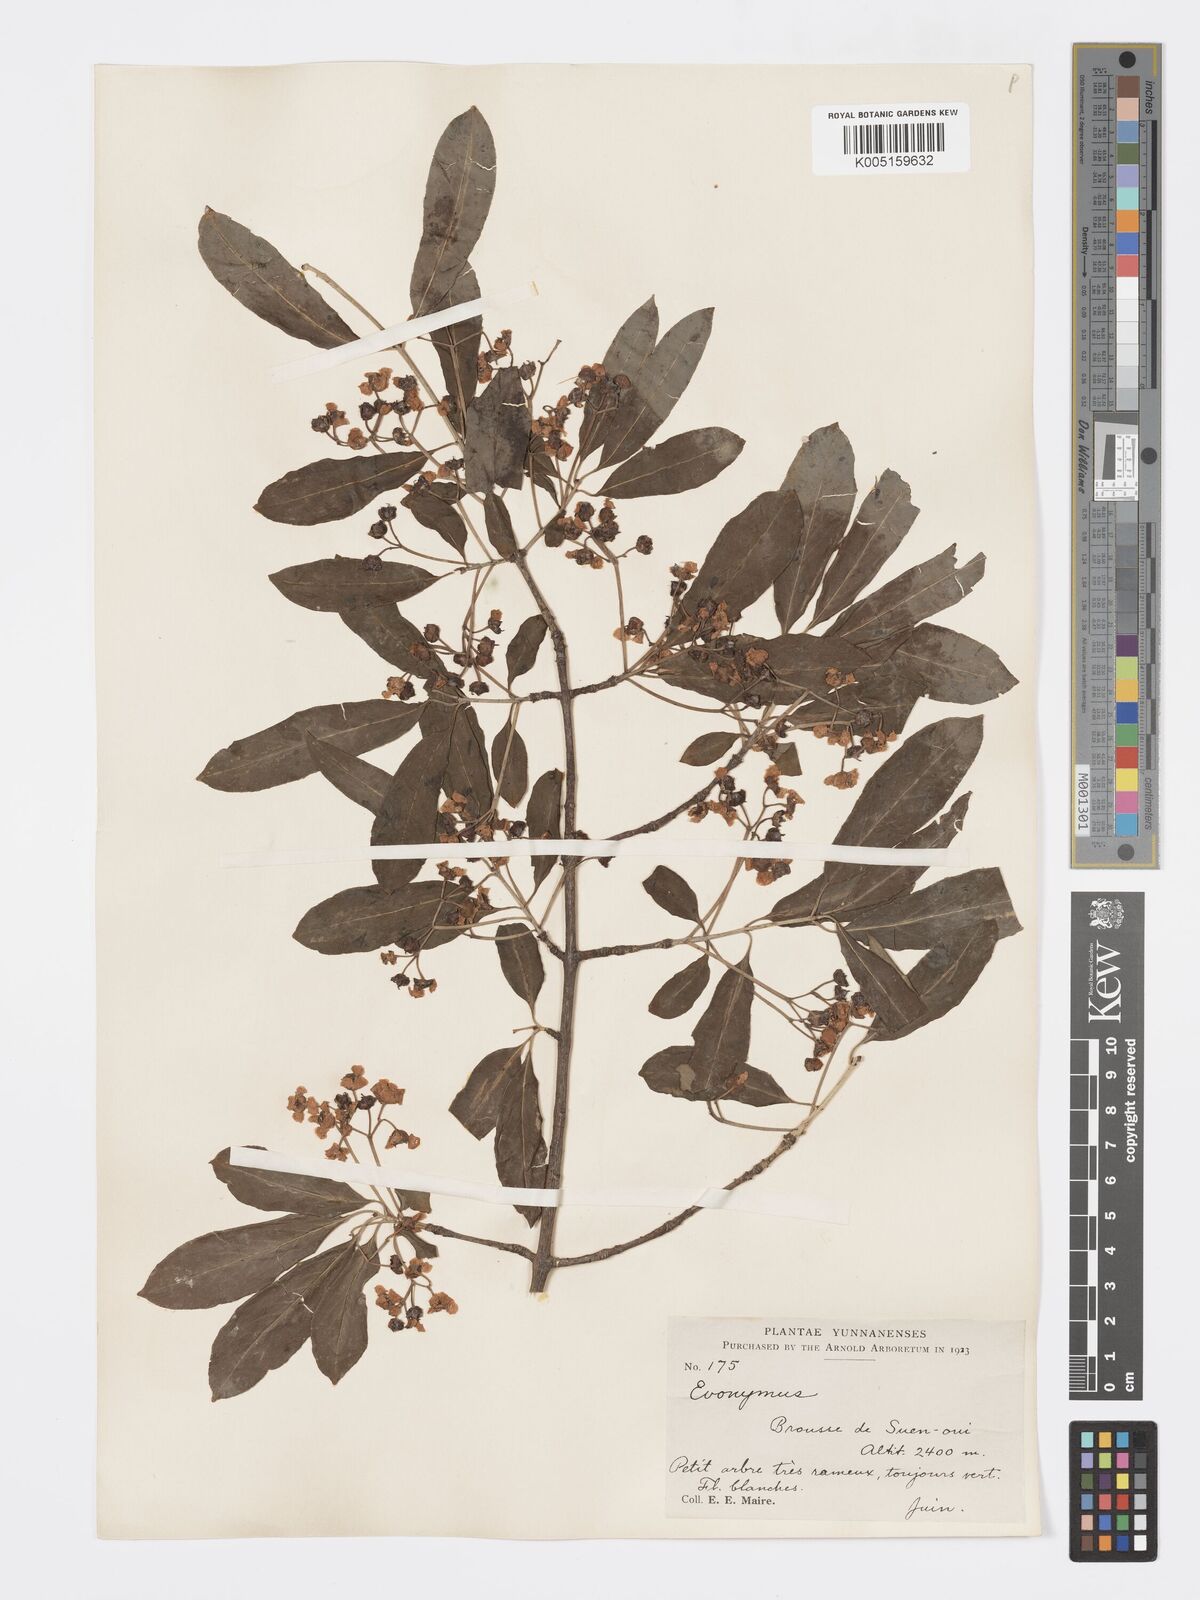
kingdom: Plantae
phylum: Tracheophyta
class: Magnoliopsida
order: Celastrales
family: Celastraceae
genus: Euonymus
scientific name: Euonymus grandiflorus
